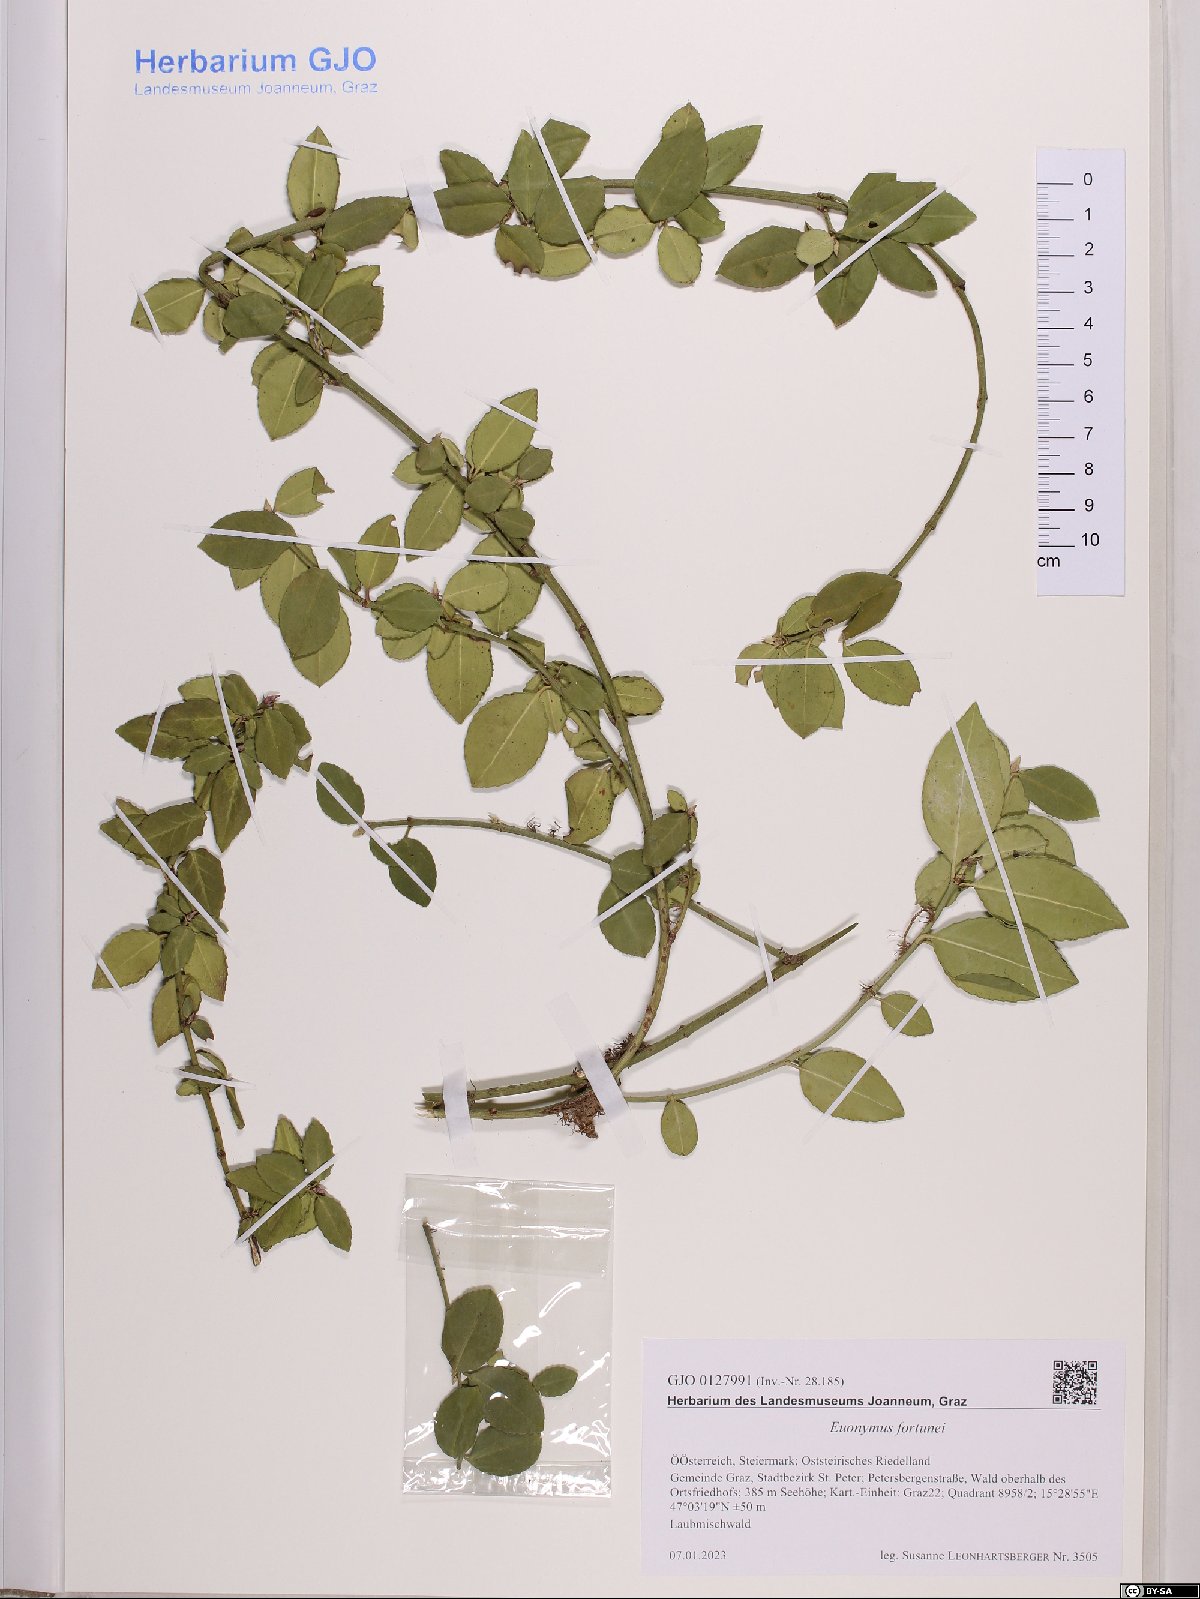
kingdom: Plantae
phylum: Tracheophyta
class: Magnoliopsida
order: Celastrales
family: Celastraceae
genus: Euonymus
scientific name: Euonymus fortunei
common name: Climbing euonymus
